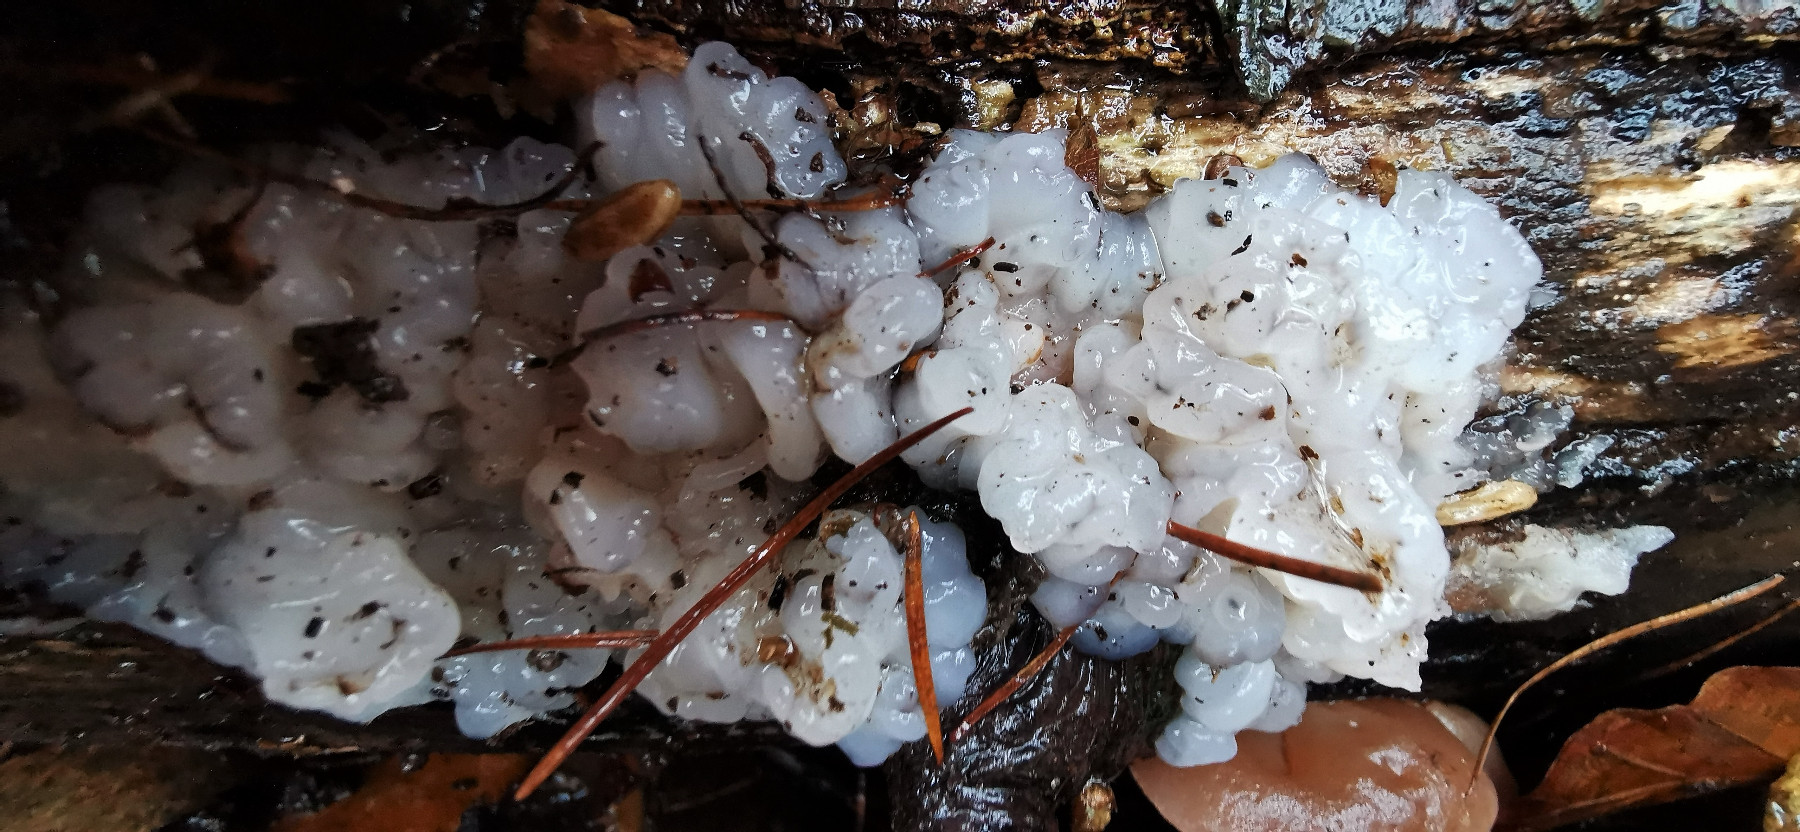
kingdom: Fungi
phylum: Basidiomycota
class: Agaricomycetes
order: Auriculariales
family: Auriculariaceae
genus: Exidia
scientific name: Exidia thuretiana
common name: hvidlig bævretop
